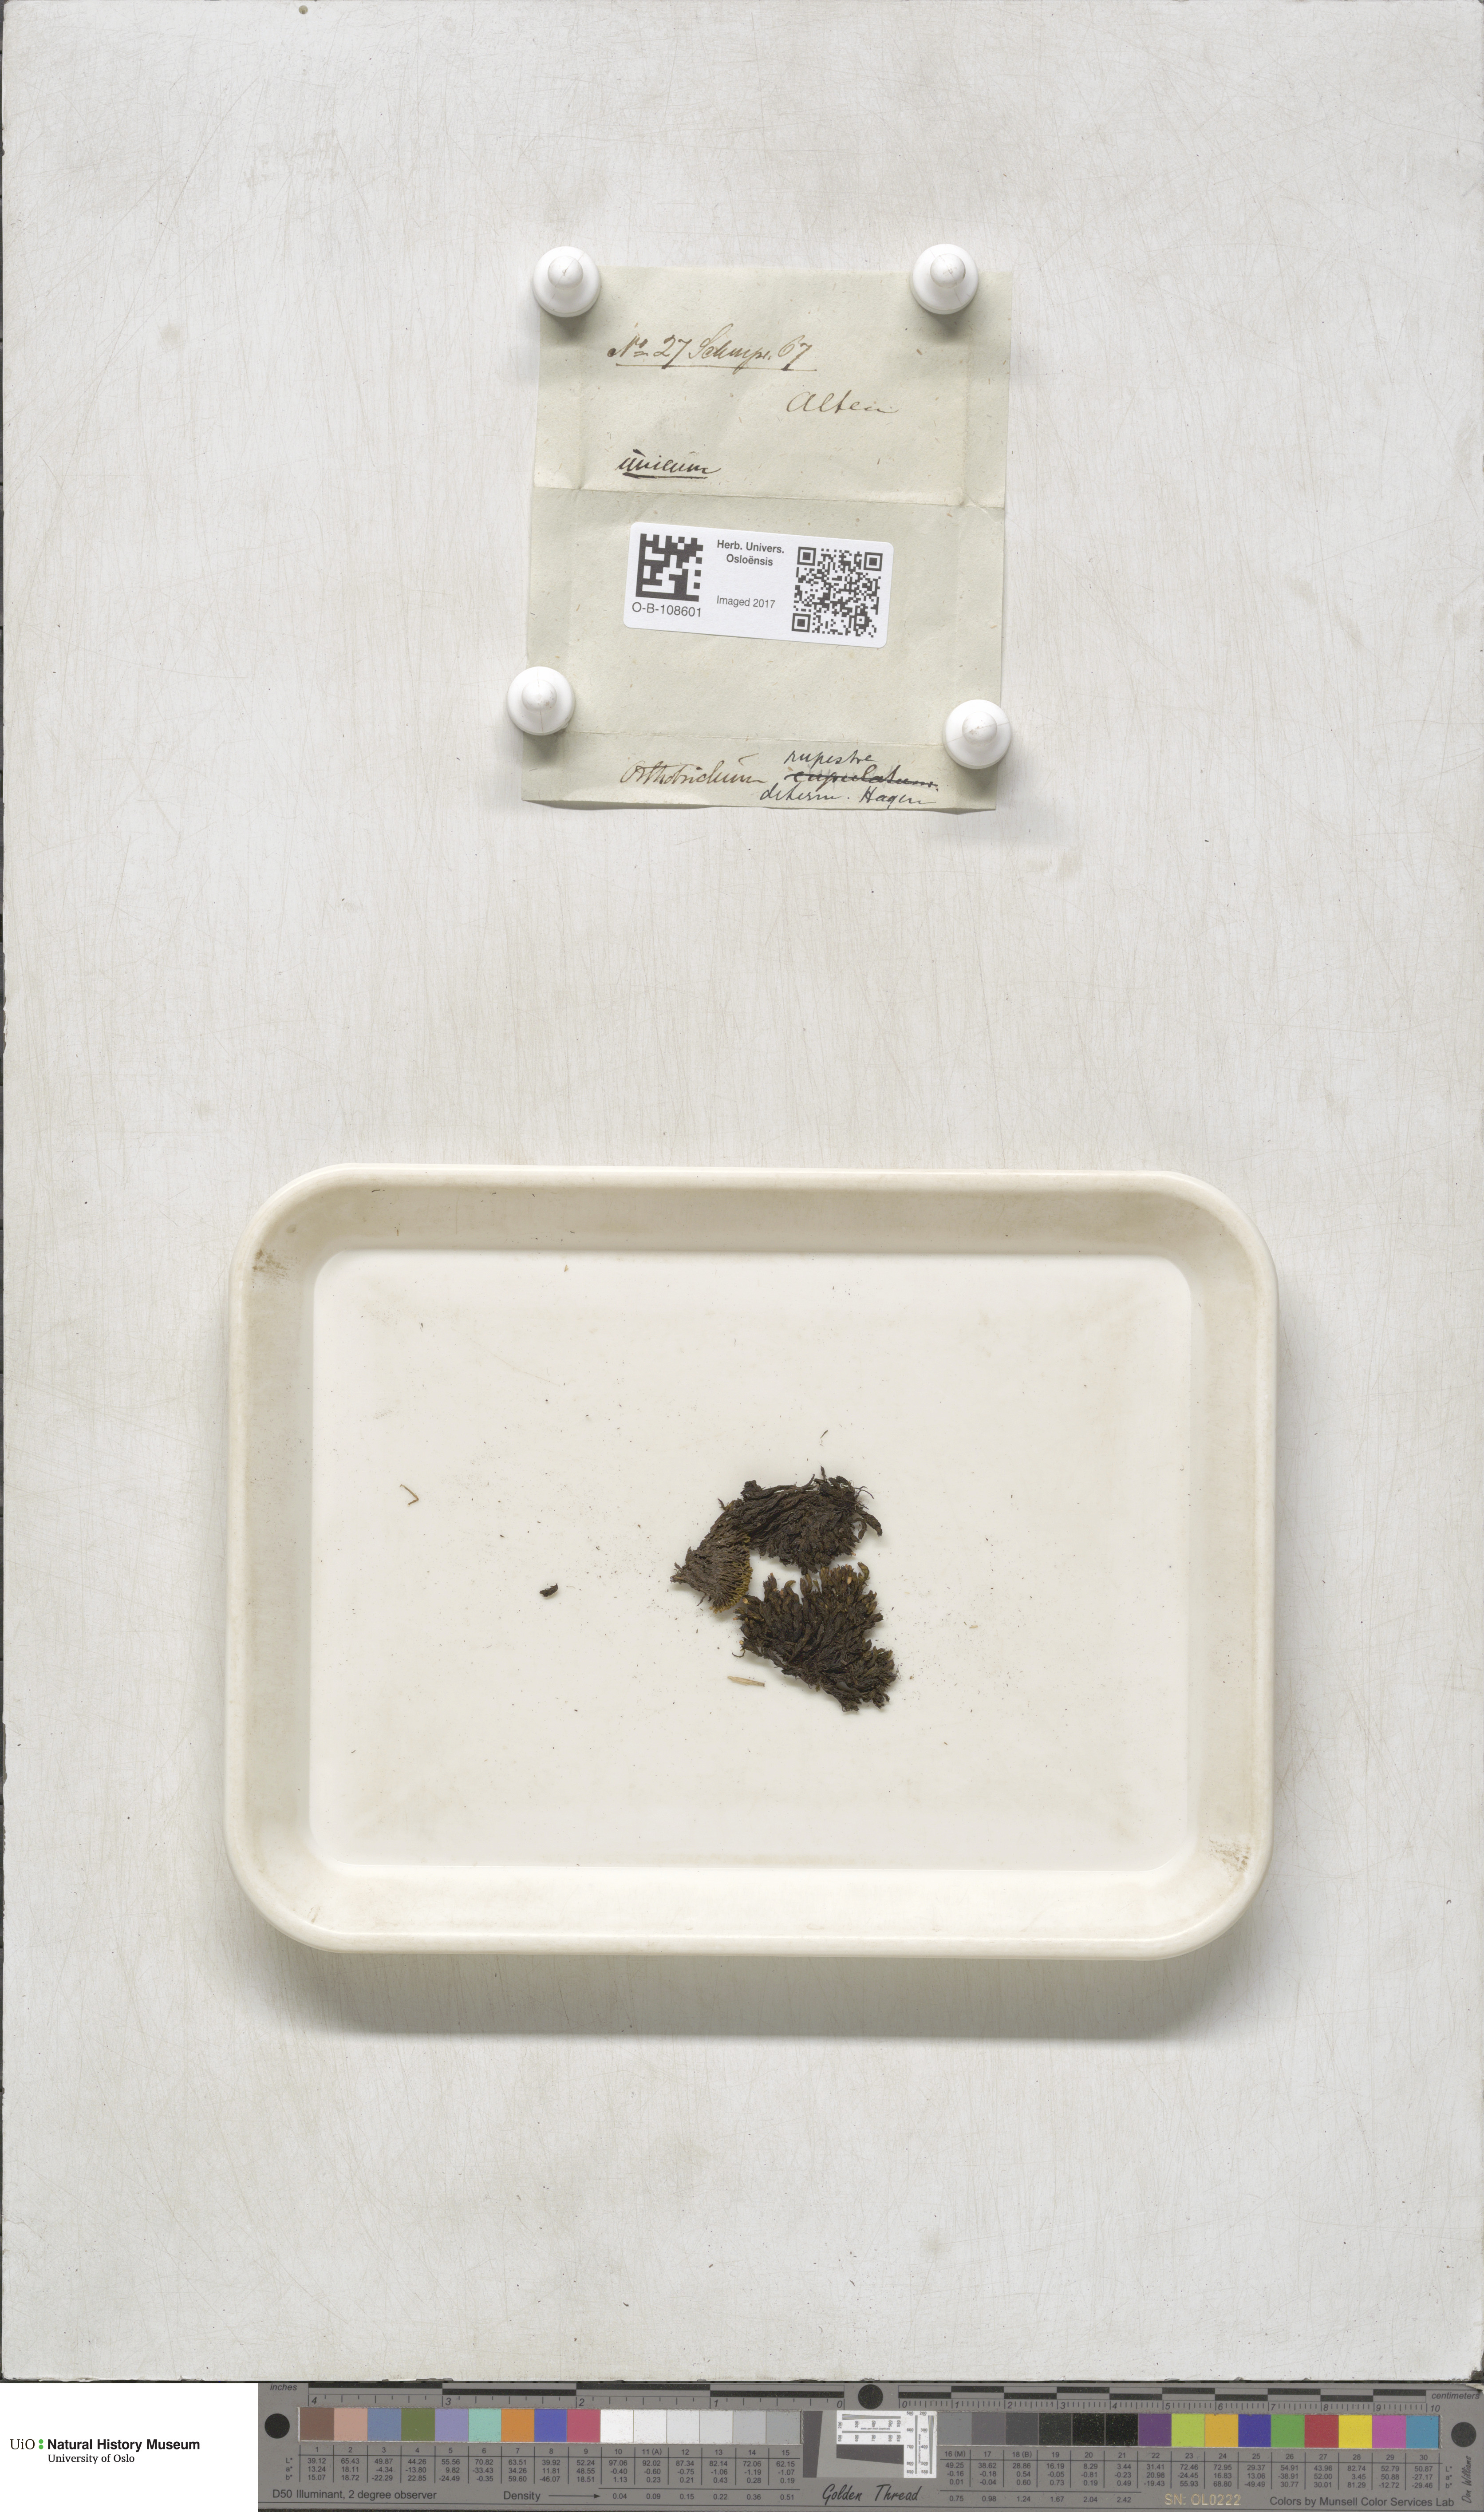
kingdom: Plantae
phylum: Bryophyta
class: Bryopsida
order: Orthotrichales
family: Orthotrichaceae
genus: Lewinskya
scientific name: Lewinskya rupestris
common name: Rock bristle-moss
